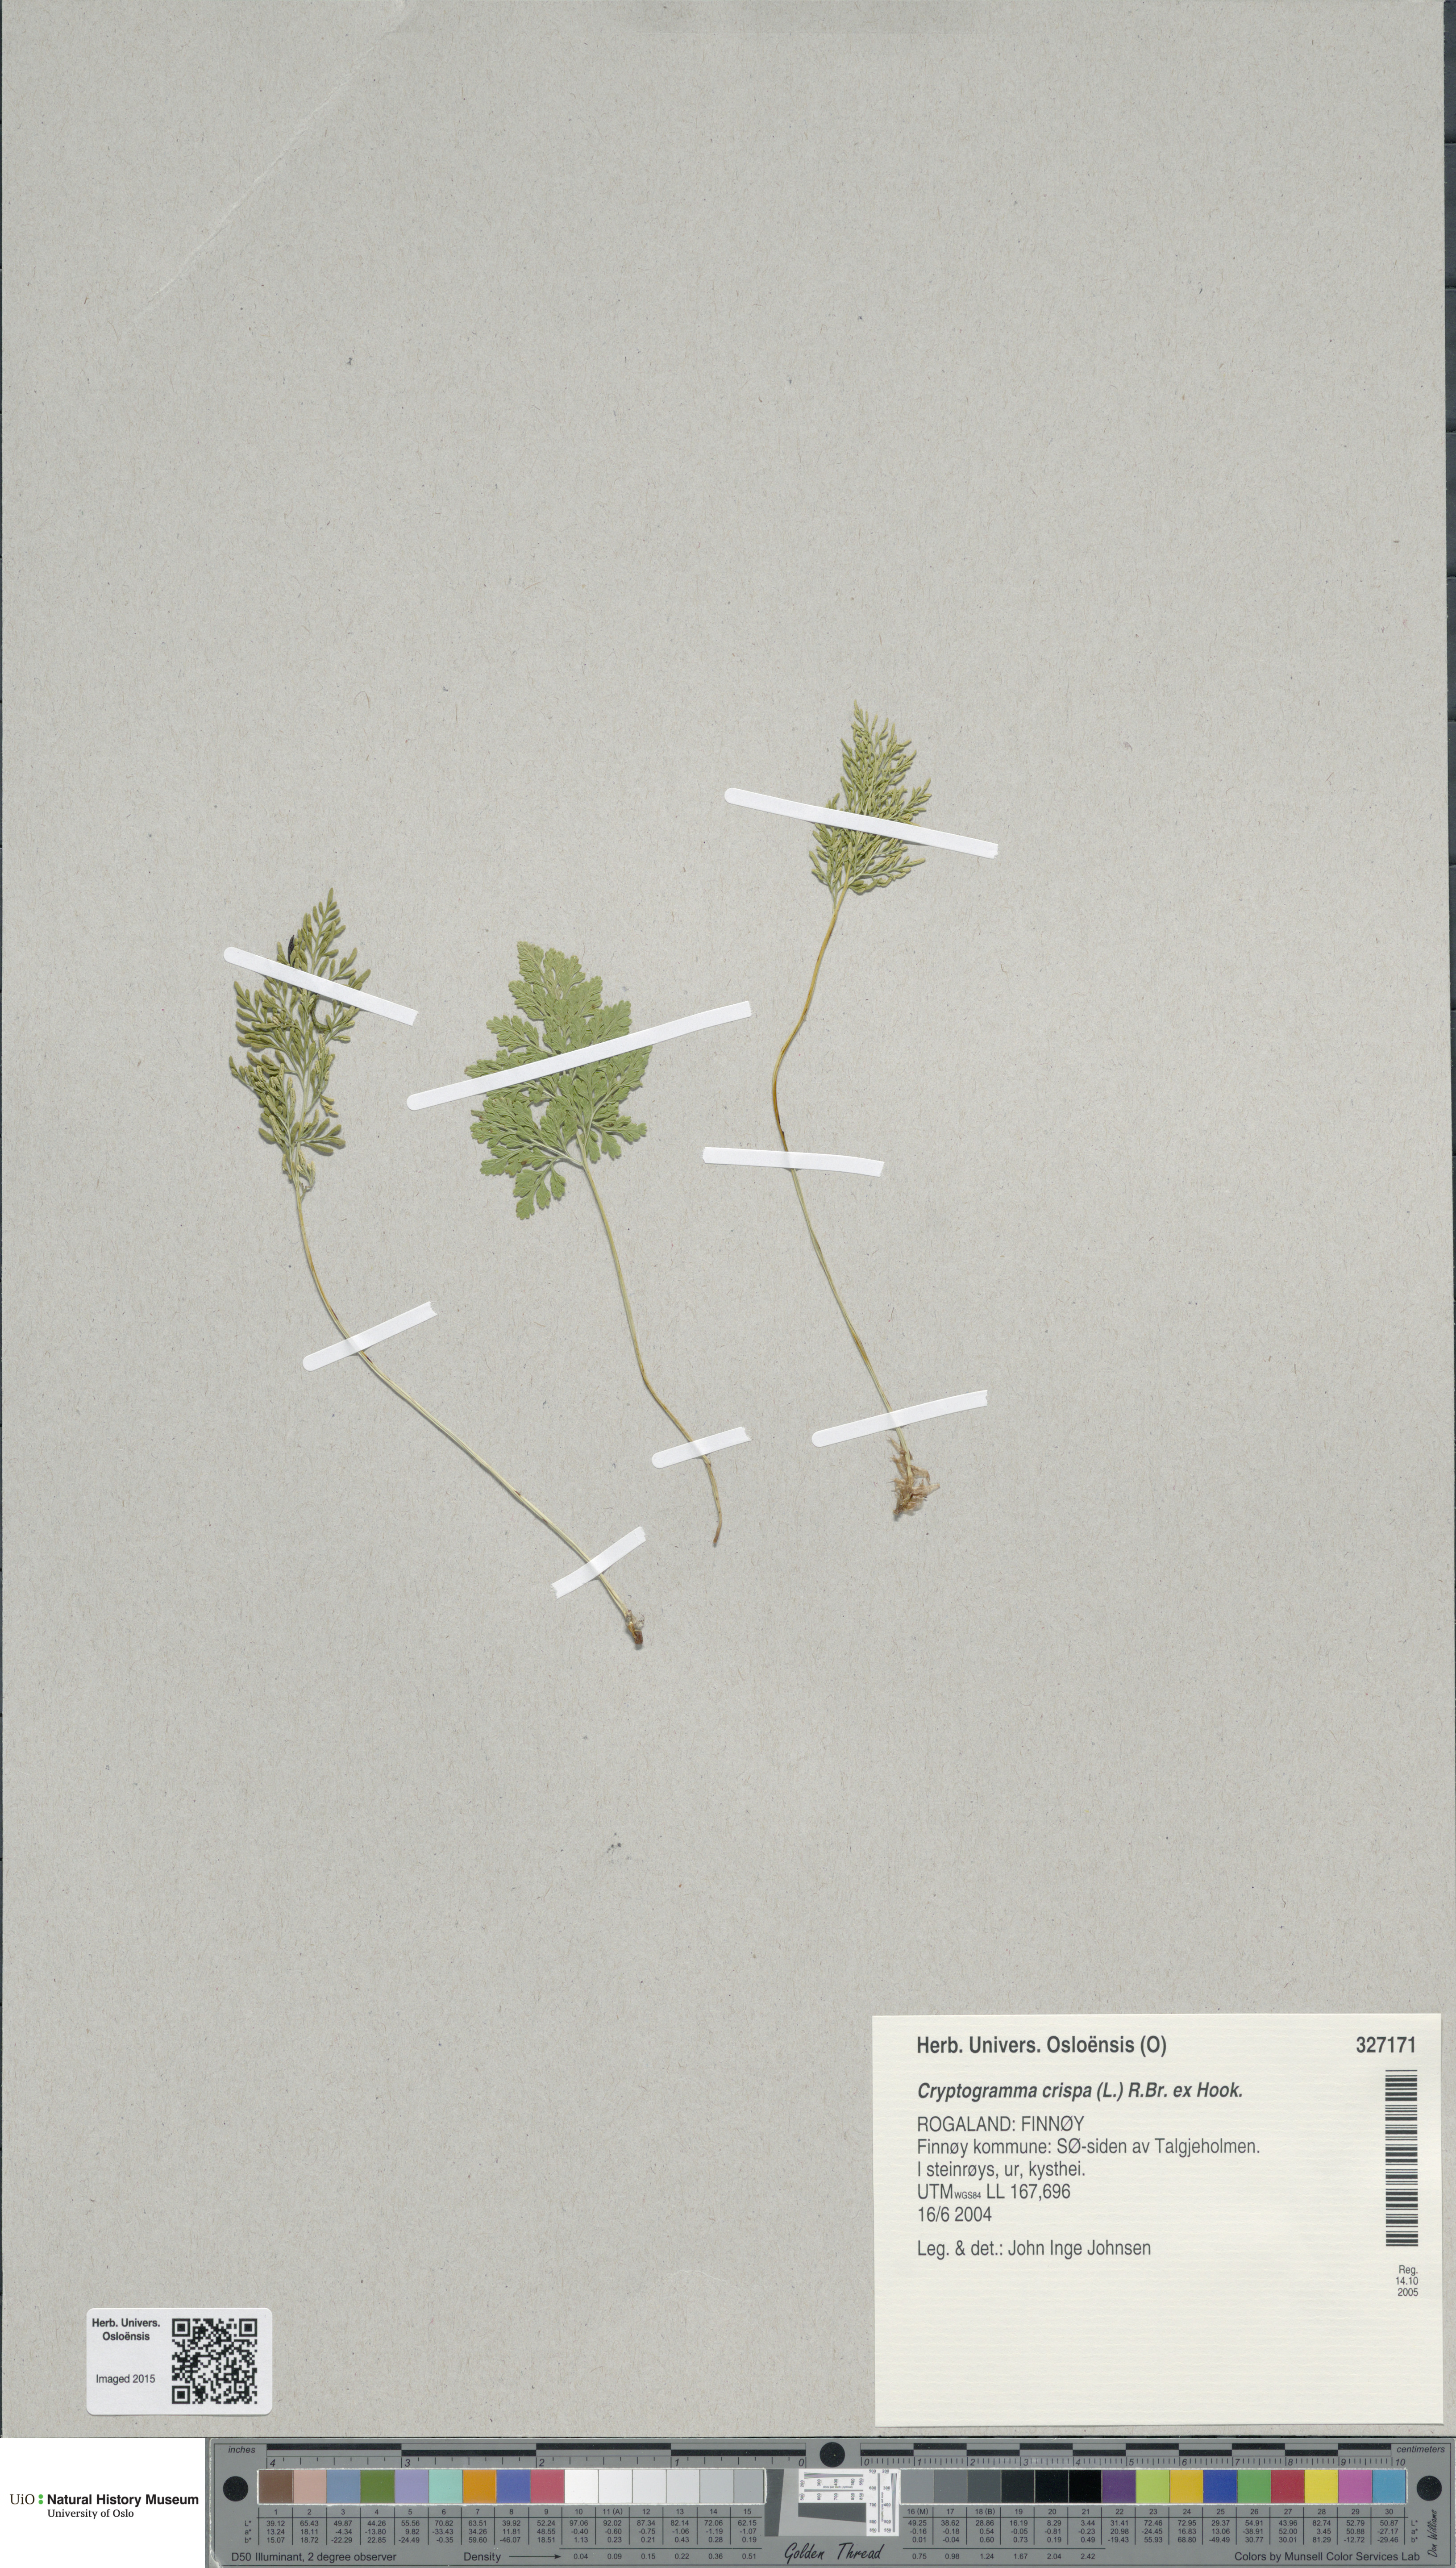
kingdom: Plantae
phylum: Tracheophyta
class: Polypodiopsida
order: Polypodiales
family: Pteridaceae
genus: Cryptogramma
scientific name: Cryptogramma crispa
